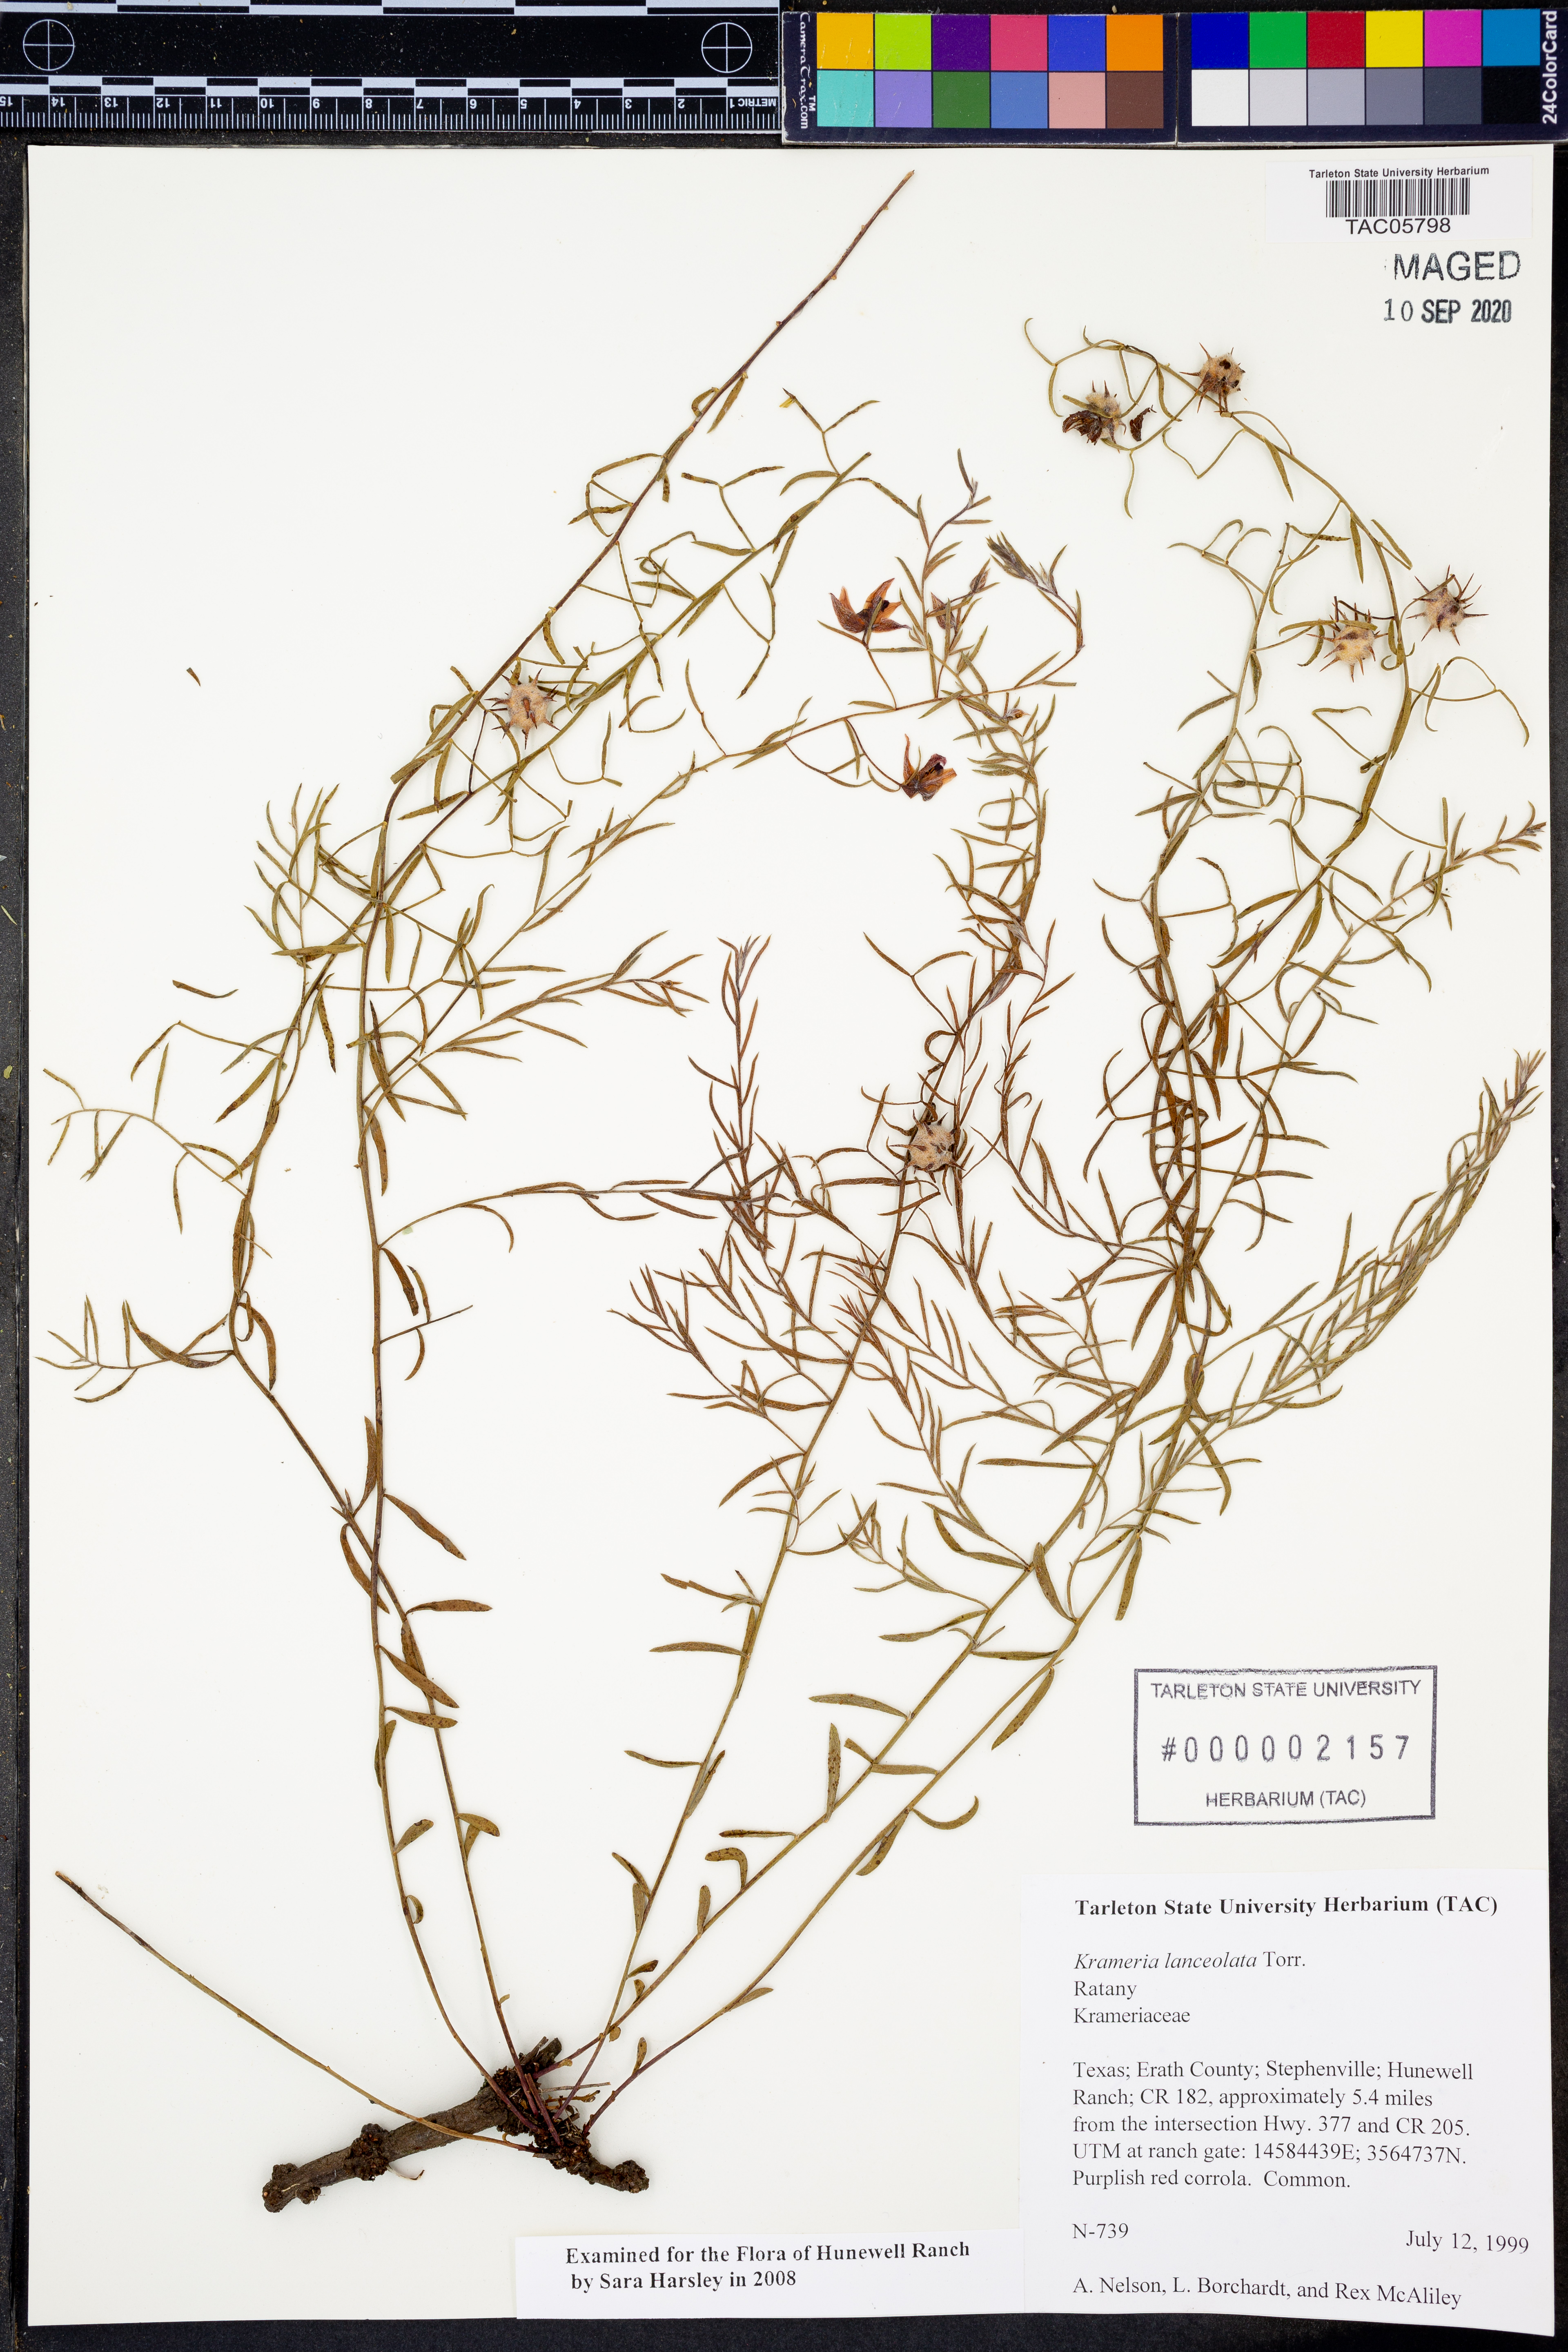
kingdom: Plantae
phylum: Tracheophyta
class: Magnoliopsida
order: Zygophyllales
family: Krameriaceae
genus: Krameria
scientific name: Krameria lanceolata
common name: Ratany
